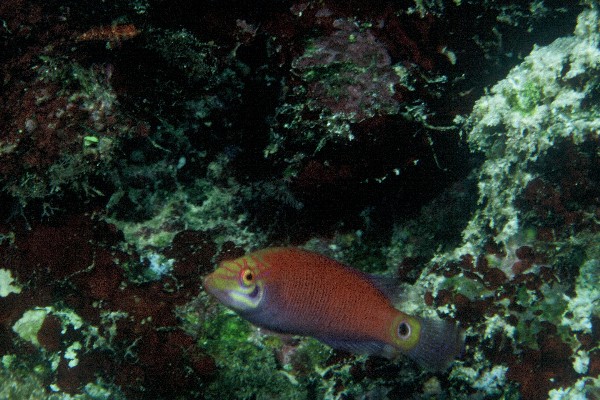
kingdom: Animalia
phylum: Chordata
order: Perciformes
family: Labridae
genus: Pseudocheilinus
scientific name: Pseudocheilinus
